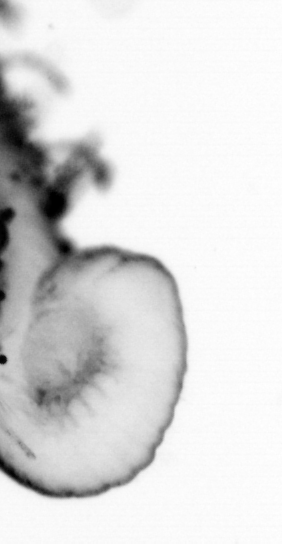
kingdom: Animalia
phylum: Annelida
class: Polychaeta
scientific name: Polychaeta
